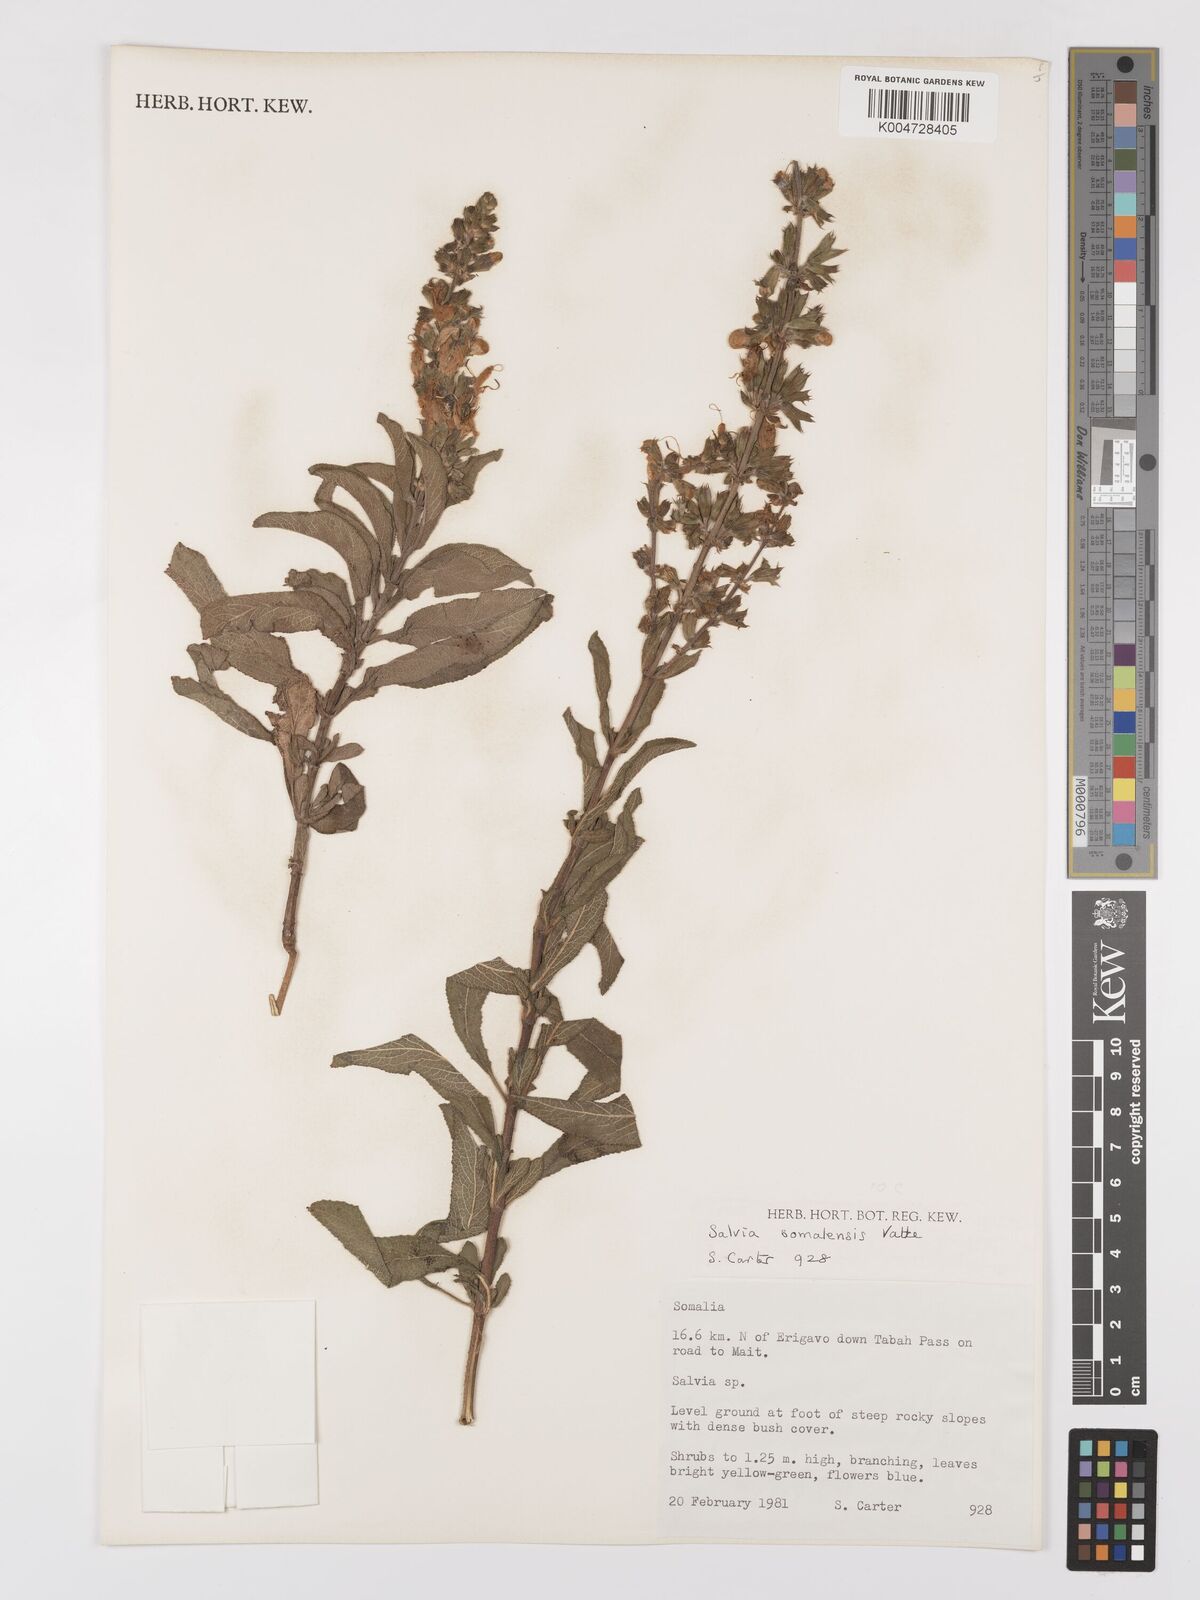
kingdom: Plantae
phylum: Tracheophyta
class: Magnoliopsida
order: Lamiales
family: Lamiaceae
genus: Salvia
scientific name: Salvia somalensis
